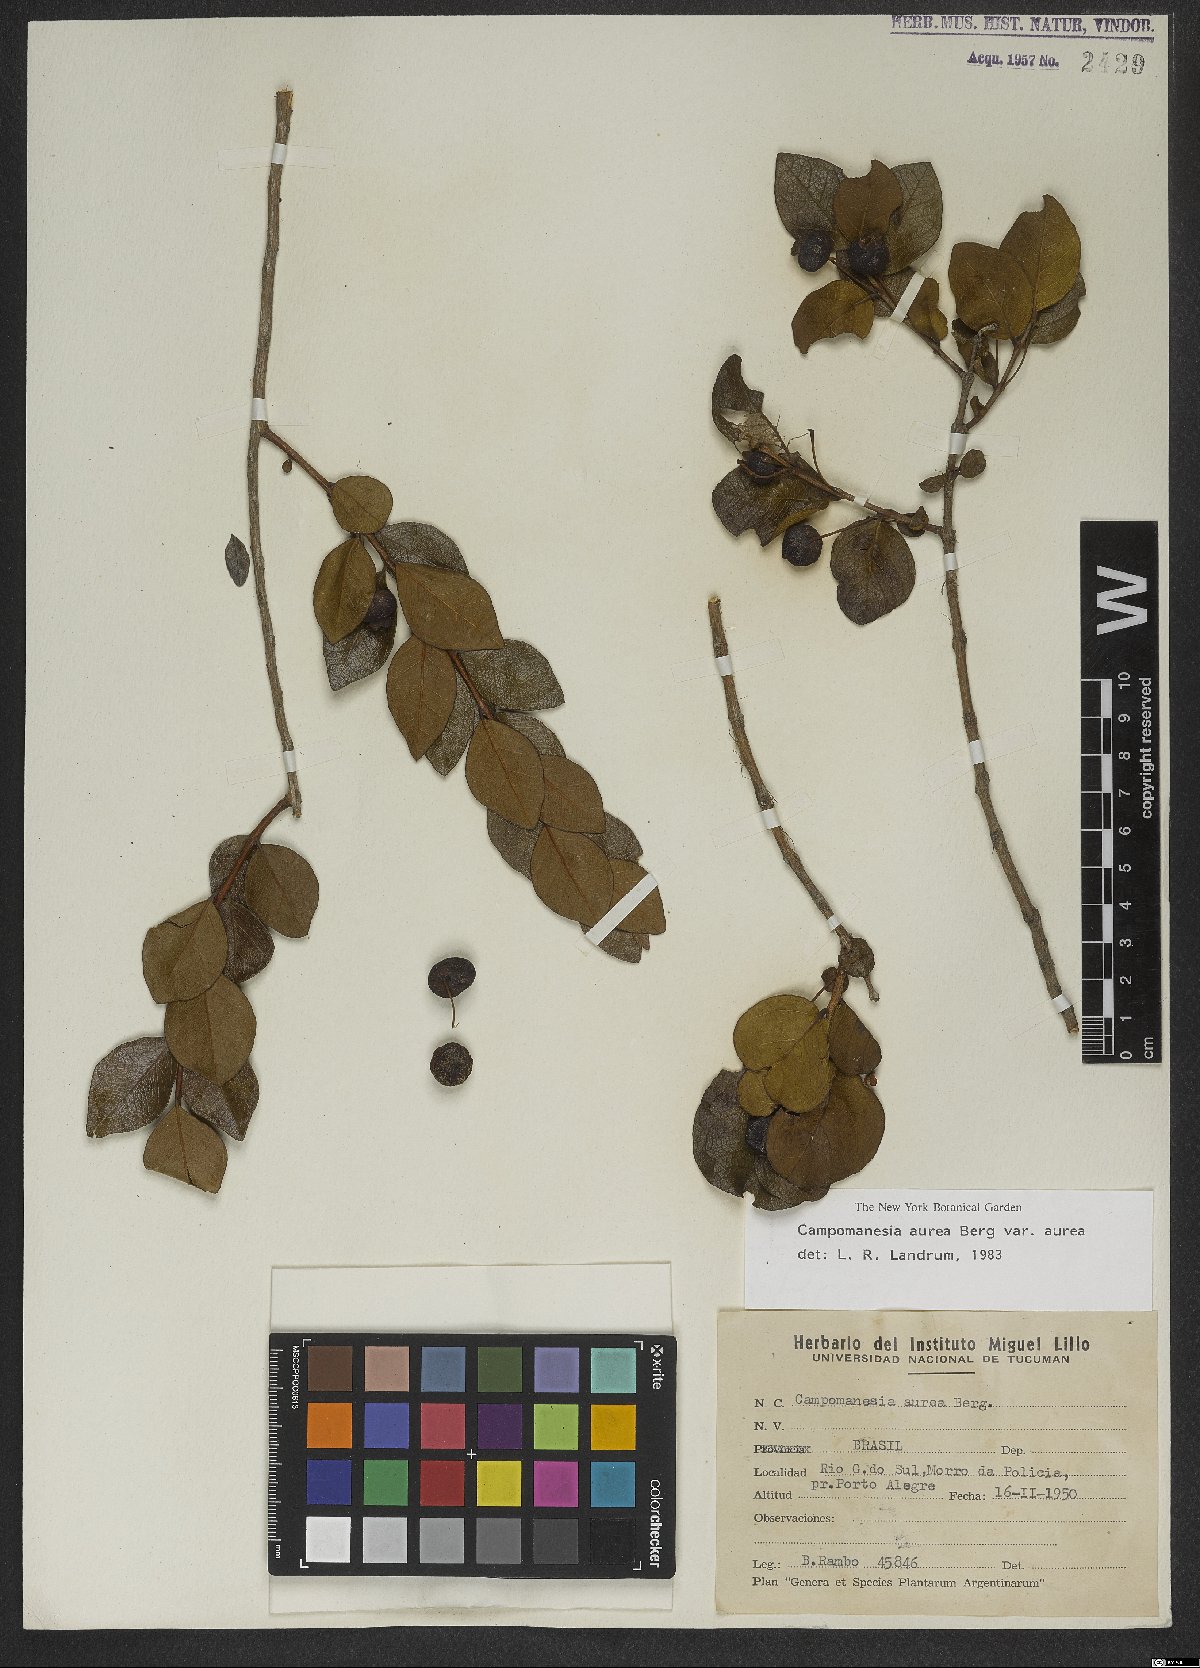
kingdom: Plantae
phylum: Tracheophyta
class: Magnoliopsida
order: Myrtales
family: Myrtaceae
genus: Campomanesia
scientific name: Campomanesia aurea
